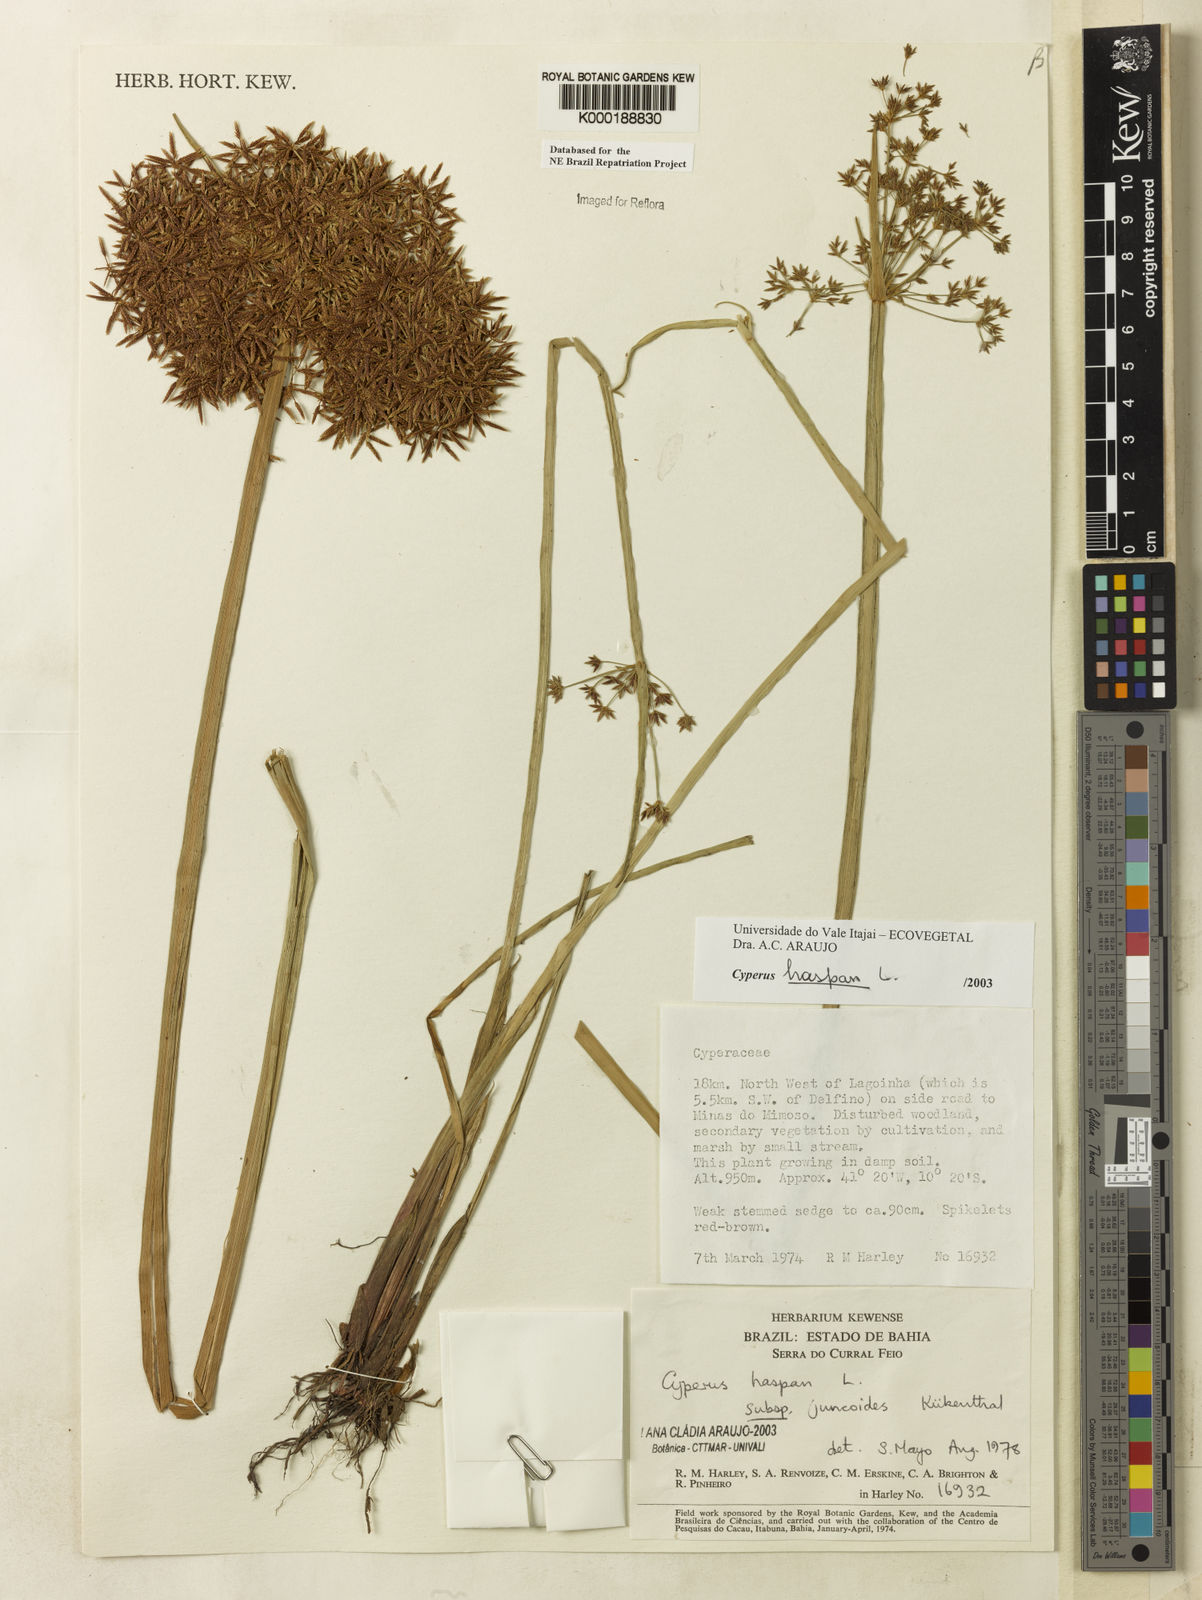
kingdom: Plantae
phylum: Tracheophyta
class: Liliopsida
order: Poales
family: Cyperaceae
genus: Cyperus
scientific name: Cyperus haspan
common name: Haspan flatsedge
